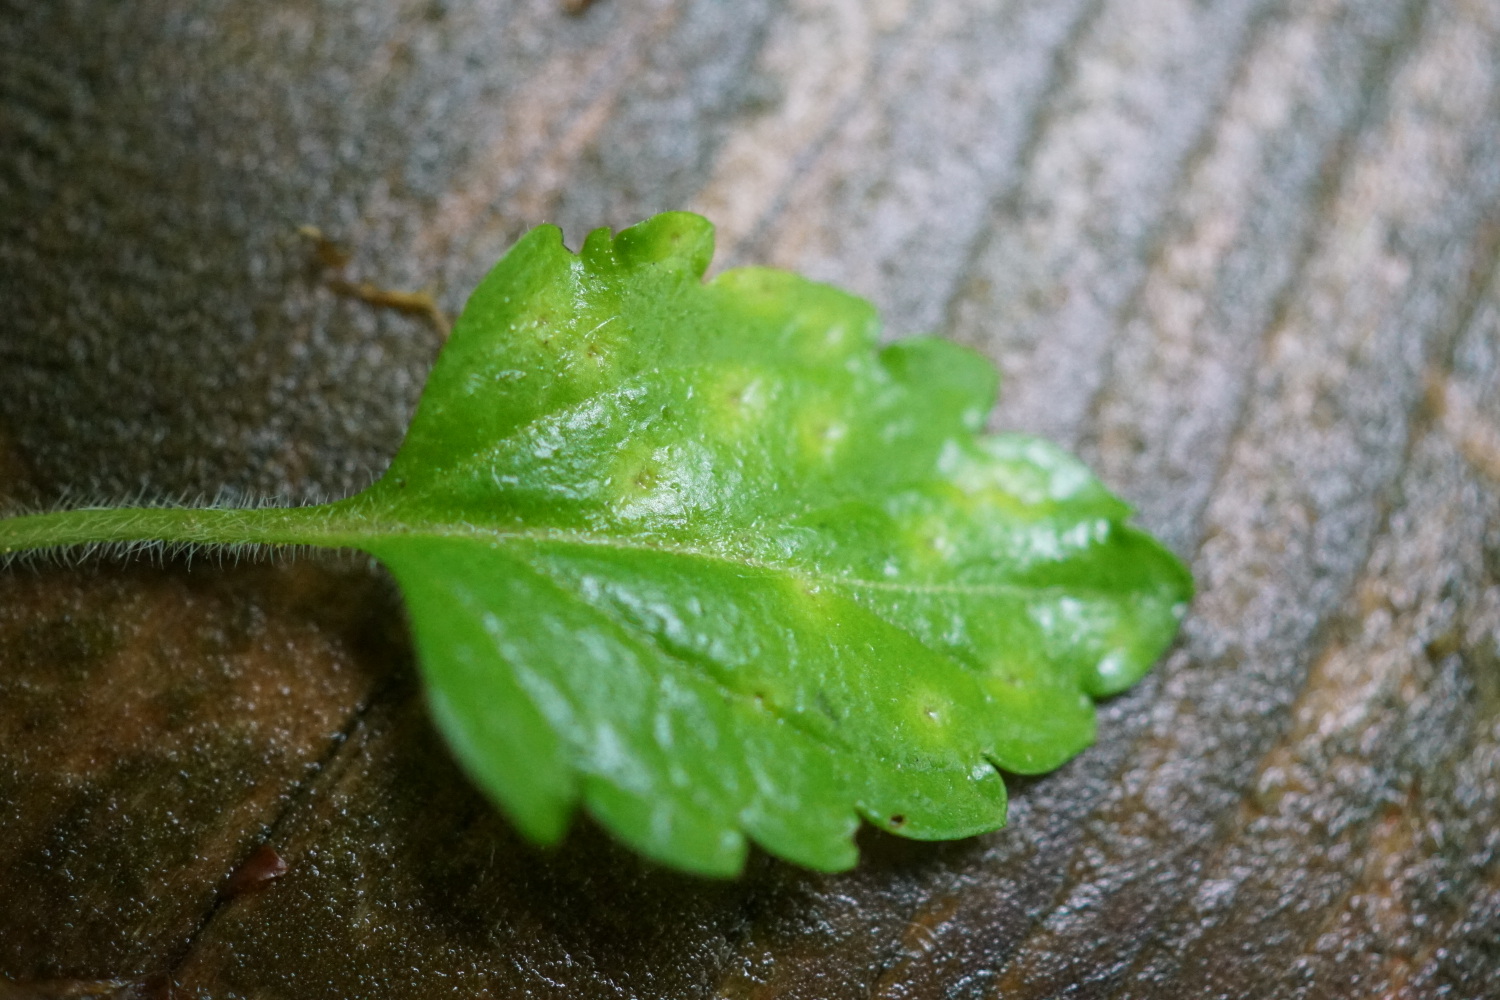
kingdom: Fungi
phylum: Basidiomycota
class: Pucciniomycetes
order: Pucciniales
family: Pucciniaceae
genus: Puccinia
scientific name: Puccinia veronicae
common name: Wood speedwell rust
